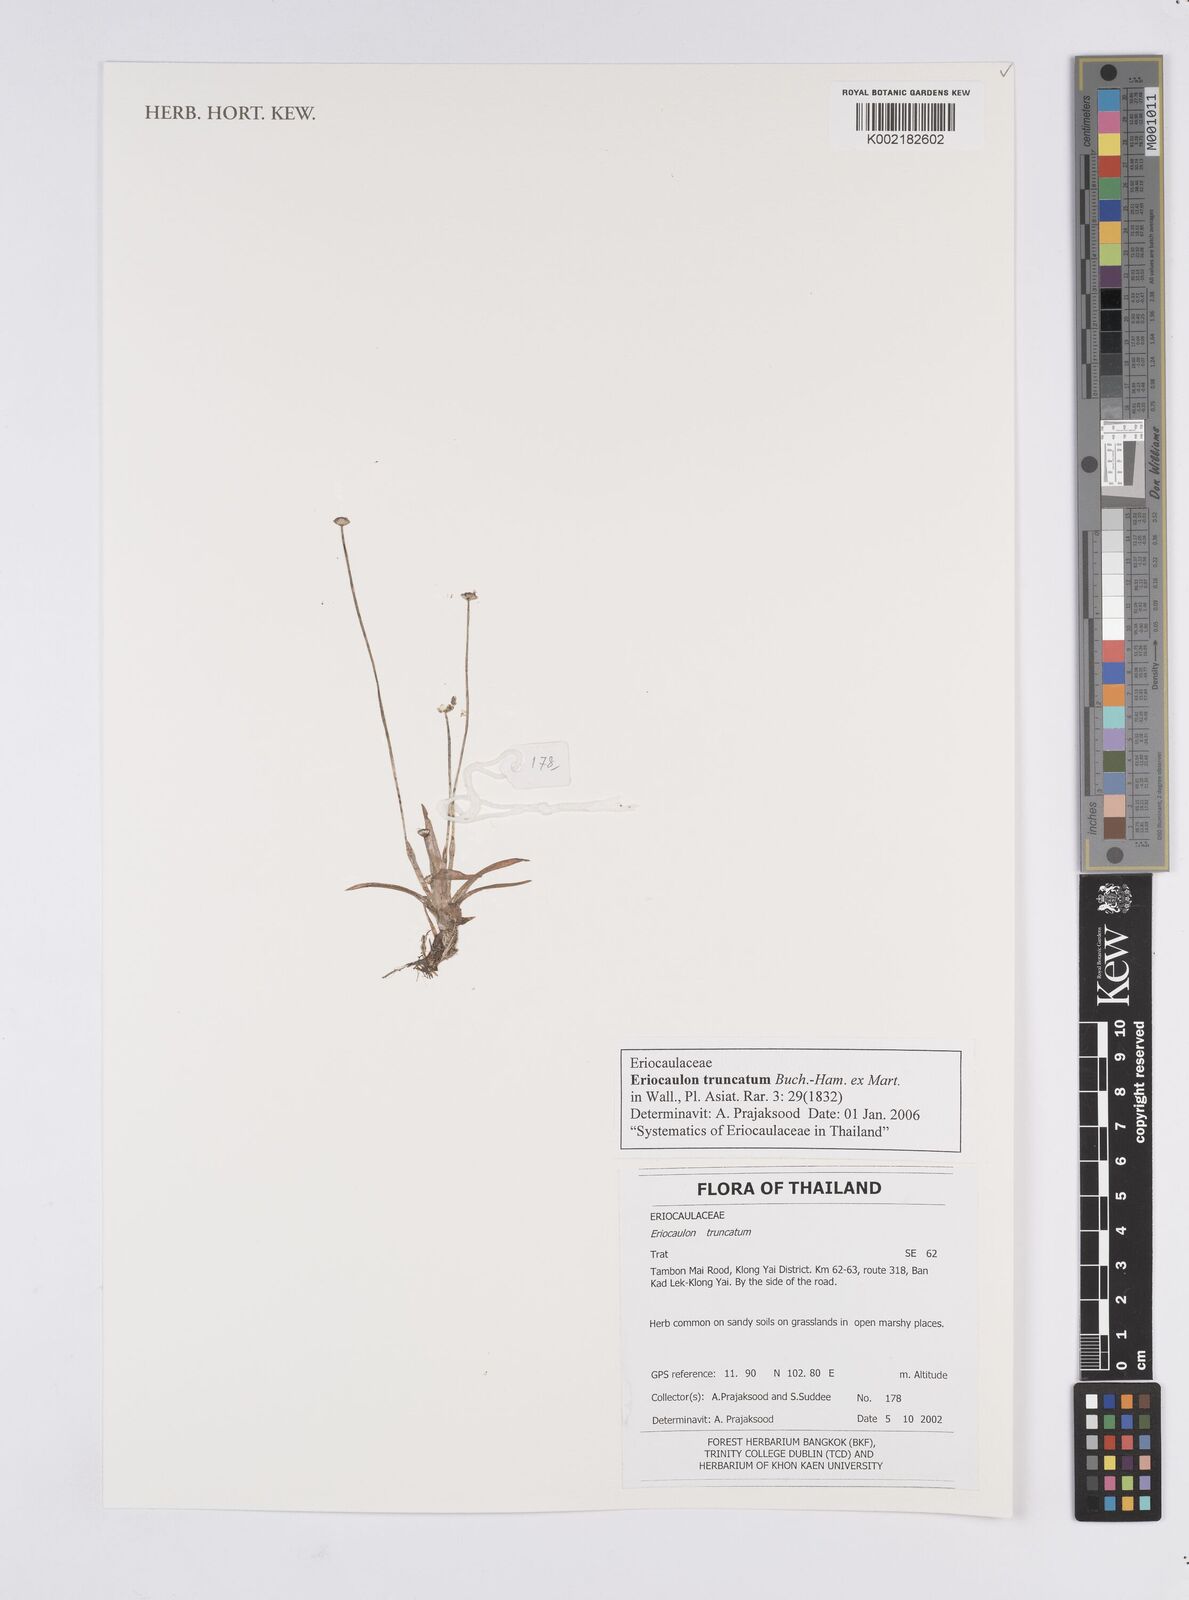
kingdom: Plantae
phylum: Tracheophyta
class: Liliopsida
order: Poales
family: Eriocaulaceae
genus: Eriocaulon
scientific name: Eriocaulon truncatum
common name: Short pipe-wort
